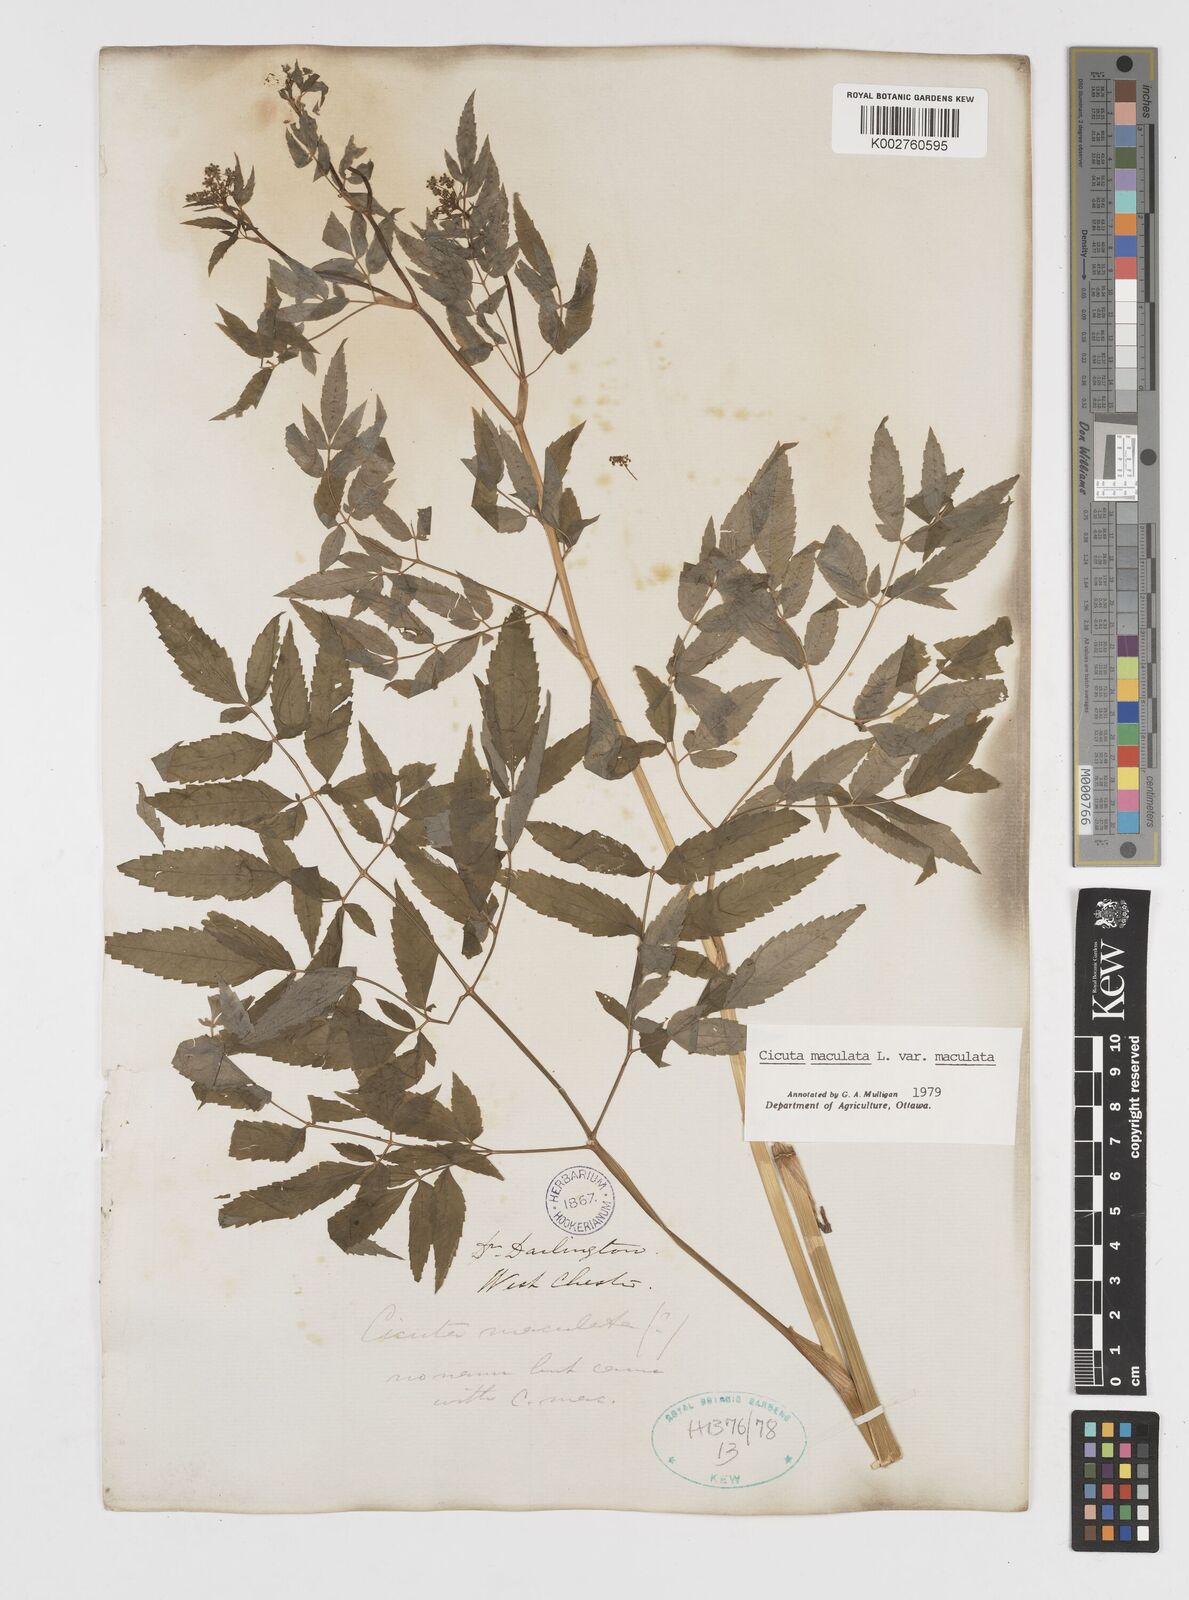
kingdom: Plantae
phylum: Tracheophyta
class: Magnoliopsida
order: Apiales
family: Apiaceae
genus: Cicuta
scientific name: Cicuta maculata
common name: Spotted cowbane
